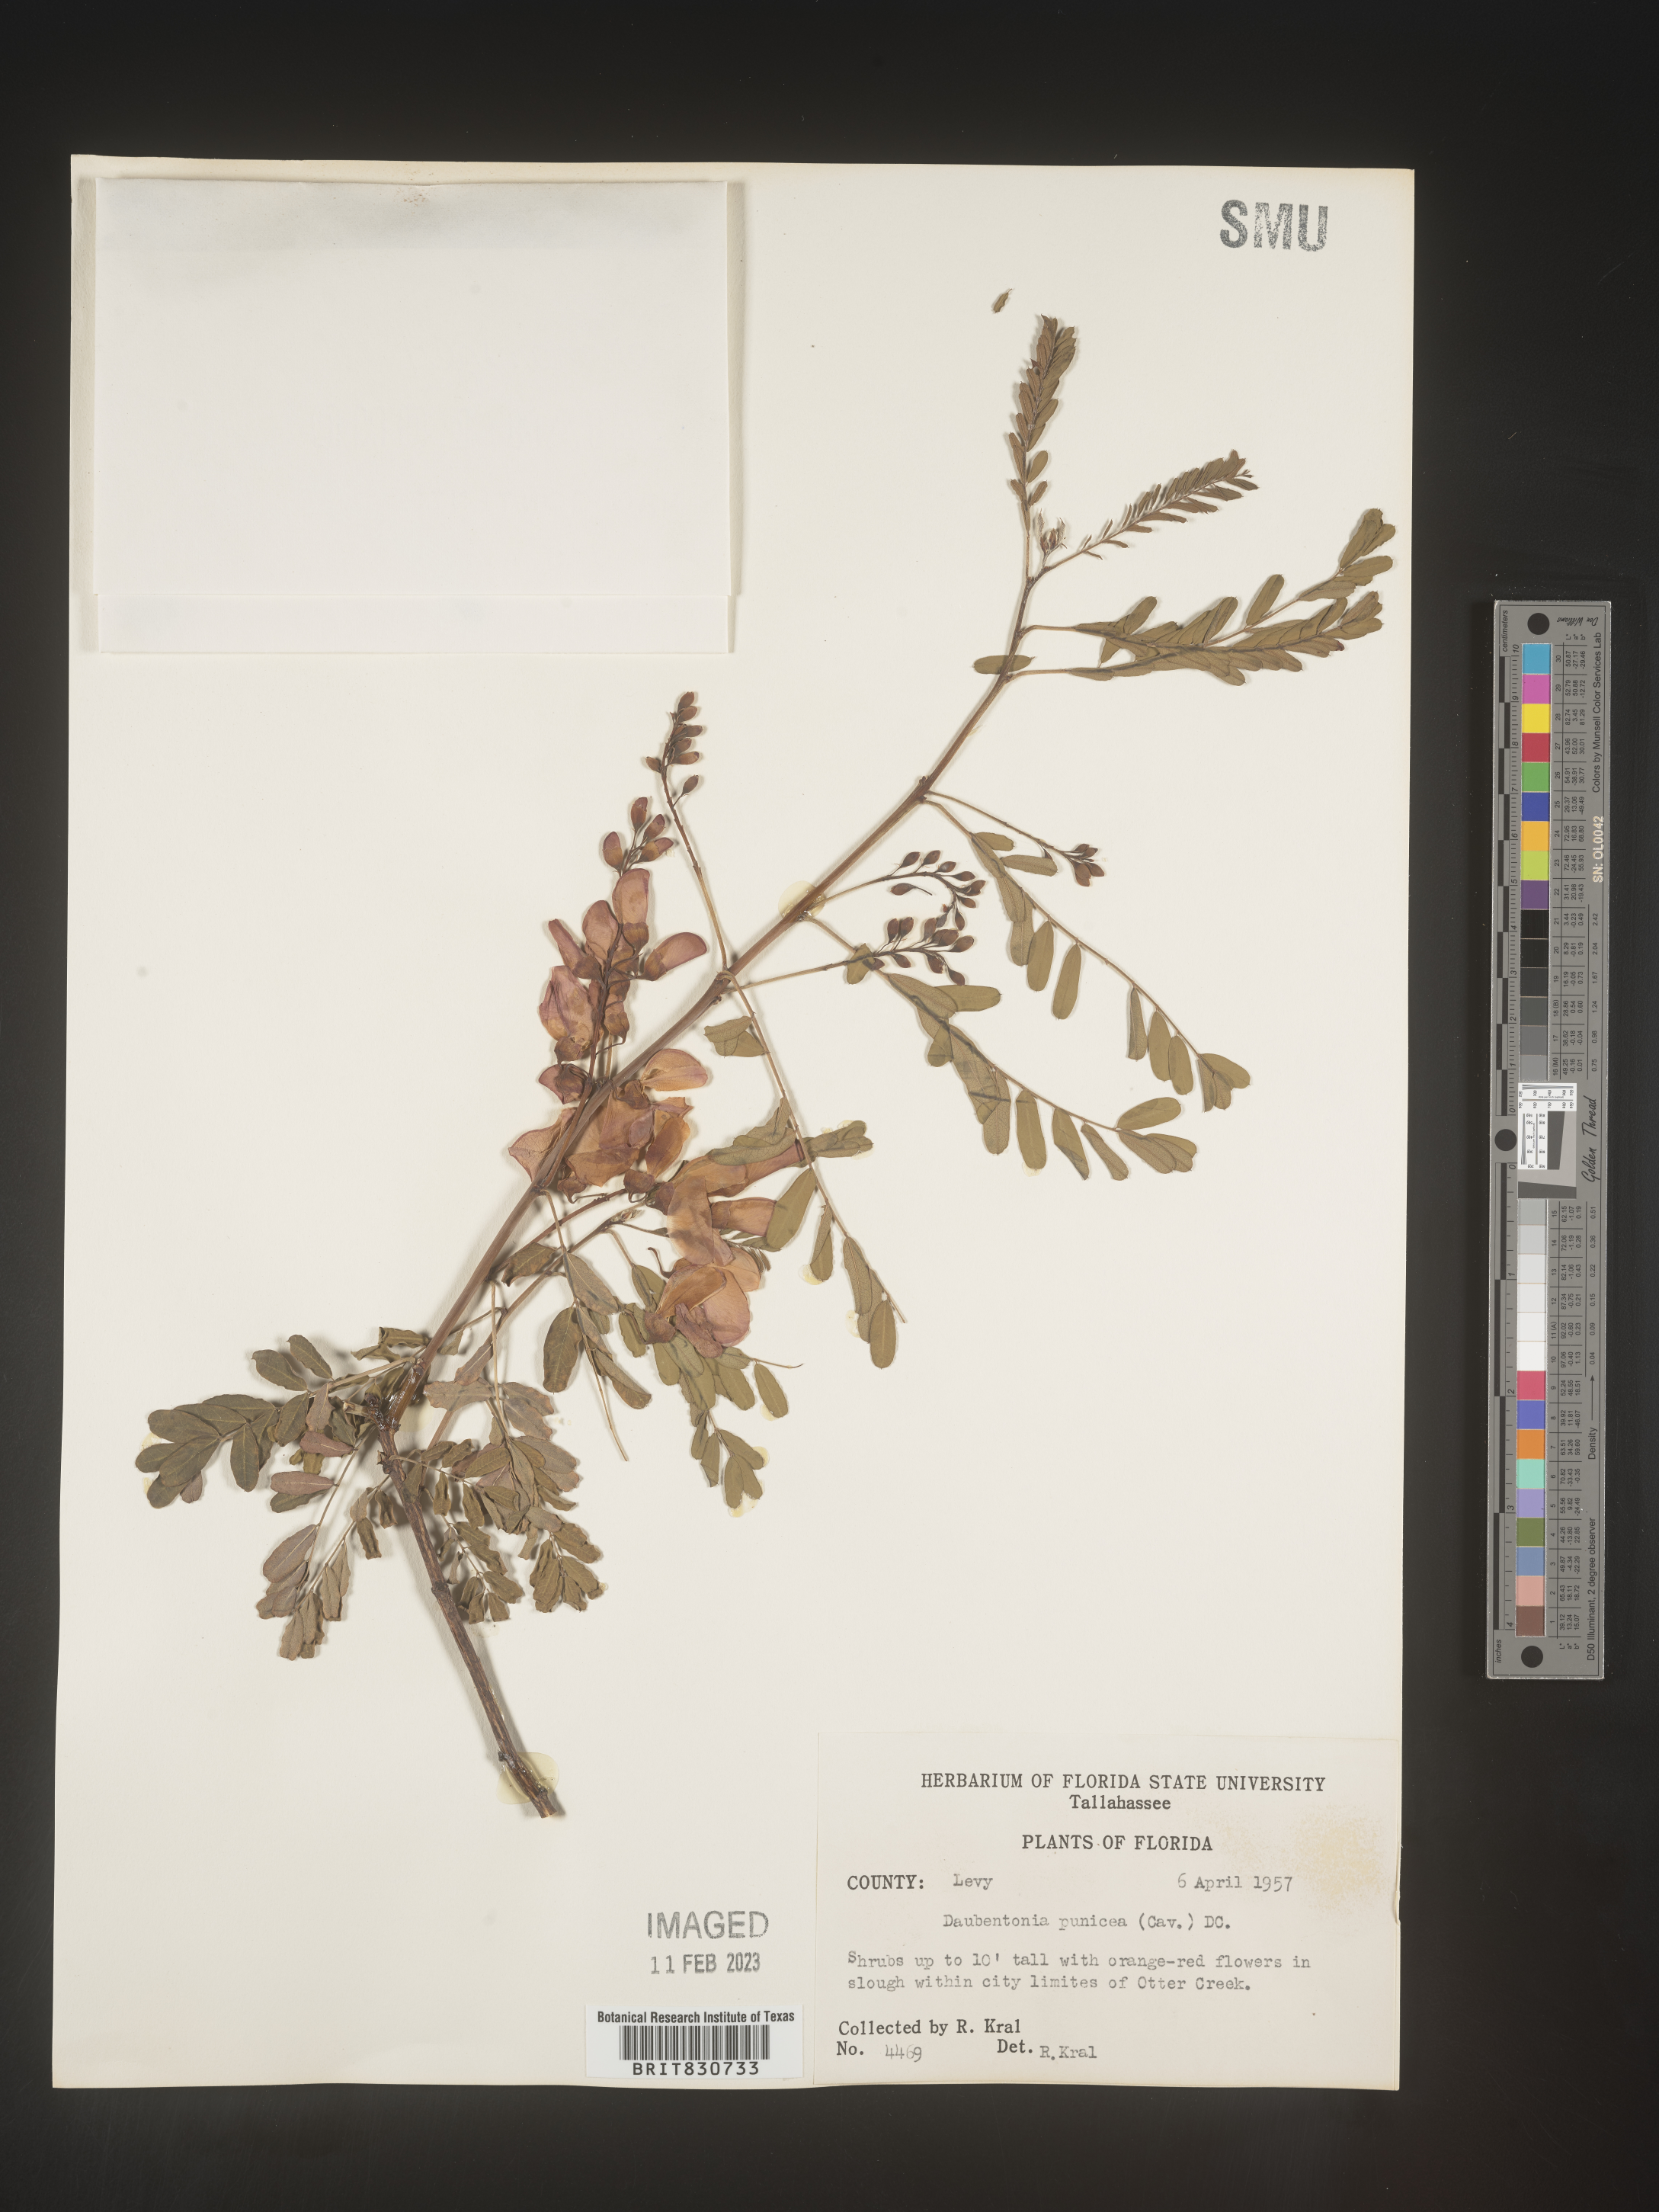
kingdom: Plantae
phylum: Tracheophyta
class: Magnoliopsida
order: Fabales
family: Fabaceae
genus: Sesbania
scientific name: Sesbania punicea
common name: Rattlebox
